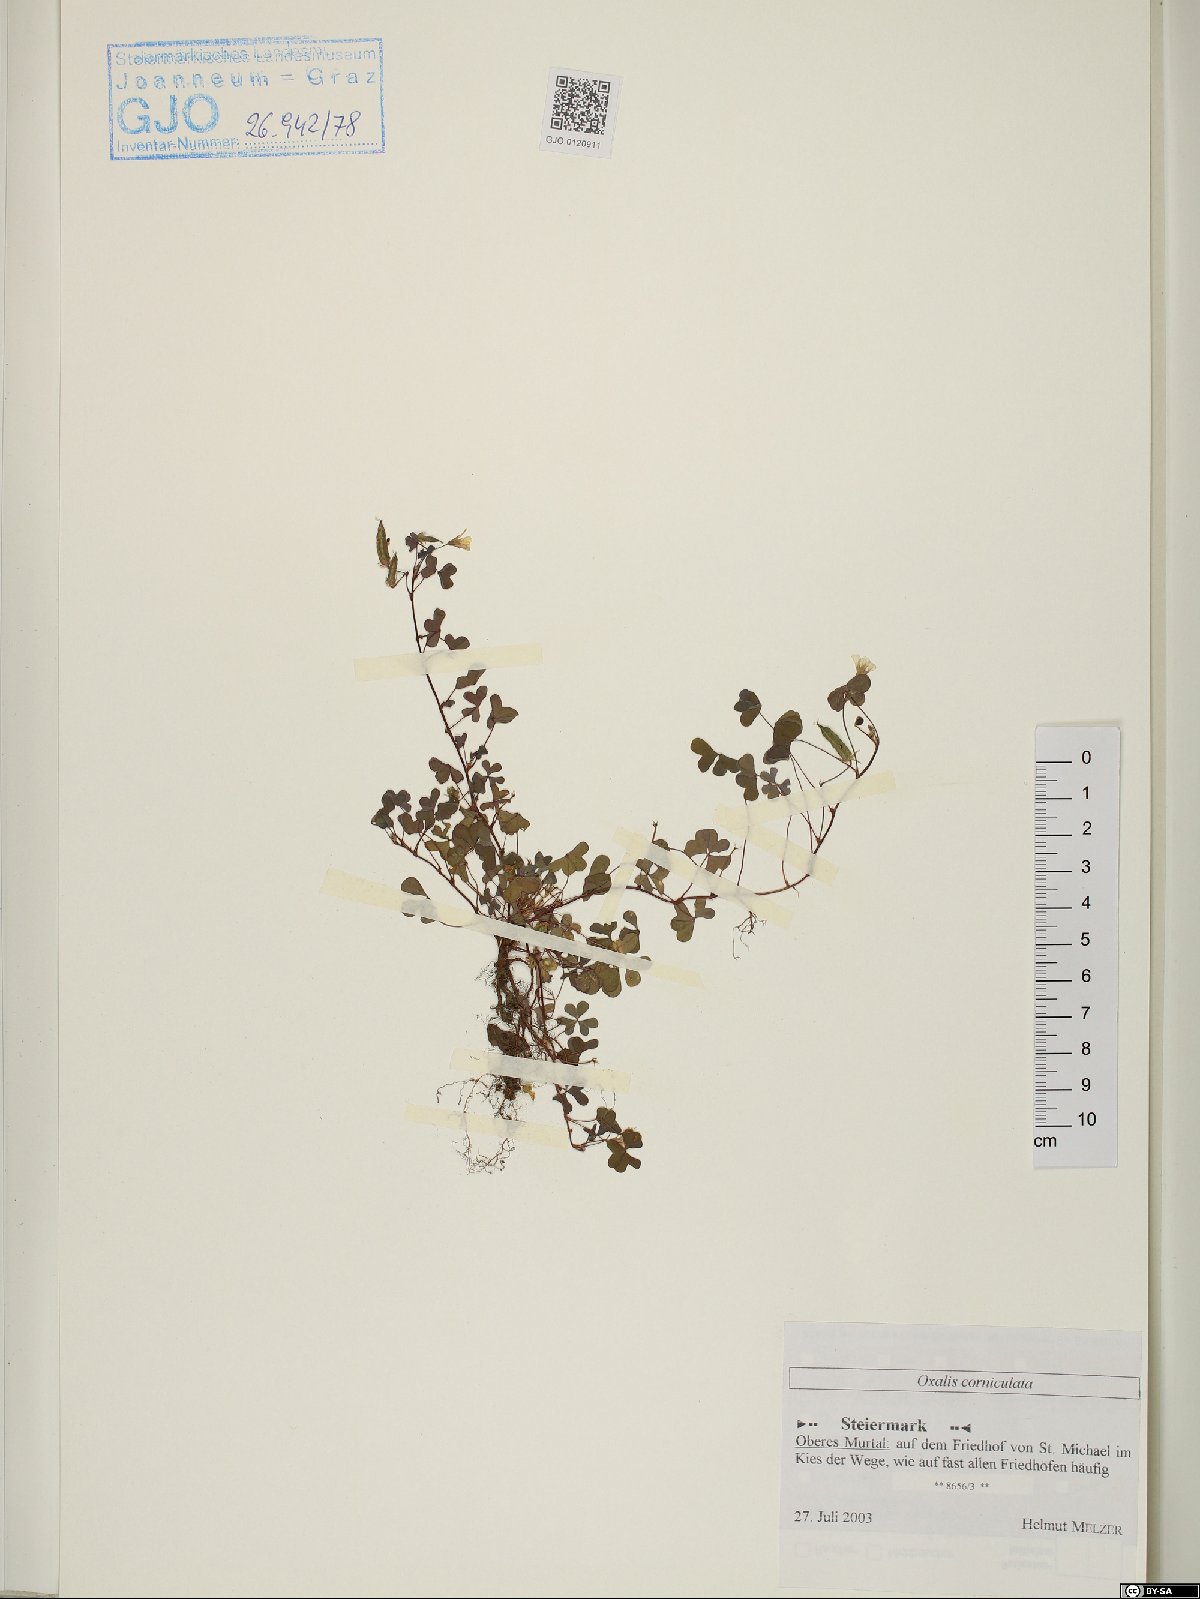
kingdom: Plantae
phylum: Tracheophyta
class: Magnoliopsida
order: Oxalidales
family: Oxalidaceae
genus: Oxalis
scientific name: Oxalis corniculata
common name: Procumbent yellow-sorrel
